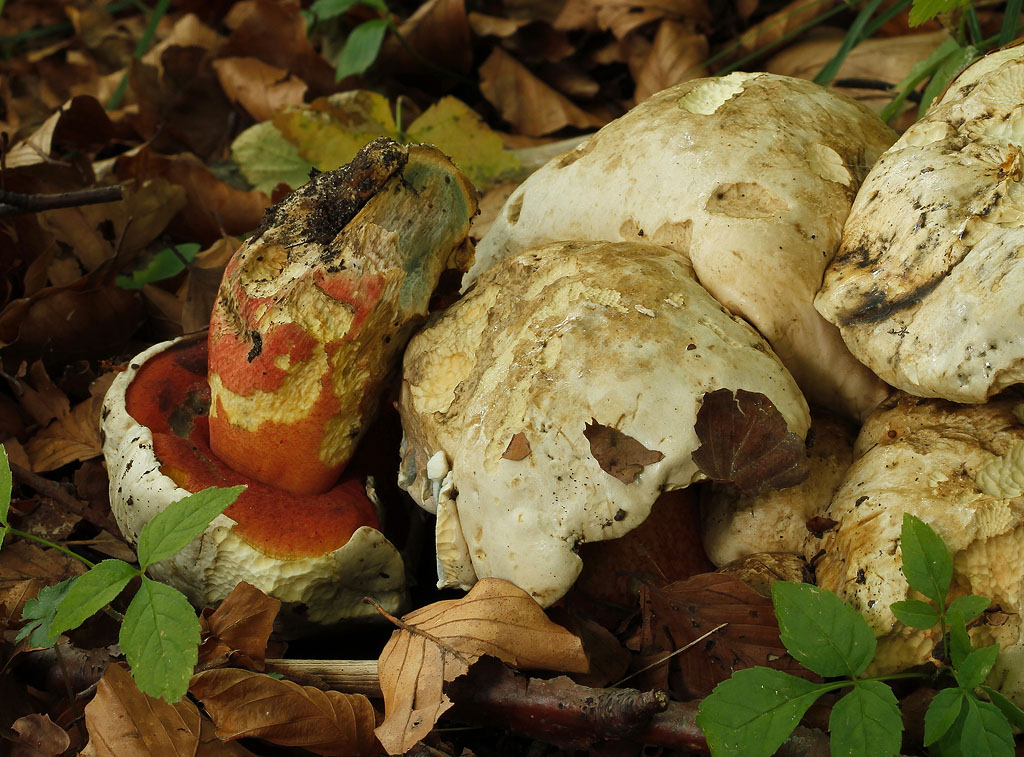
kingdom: Fungi
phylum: Basidiomycota
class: Agaricomycetes
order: Boletales
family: Boletaceae
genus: Rubroboletus
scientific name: Rubroboletus satanas
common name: Satans rørhat
